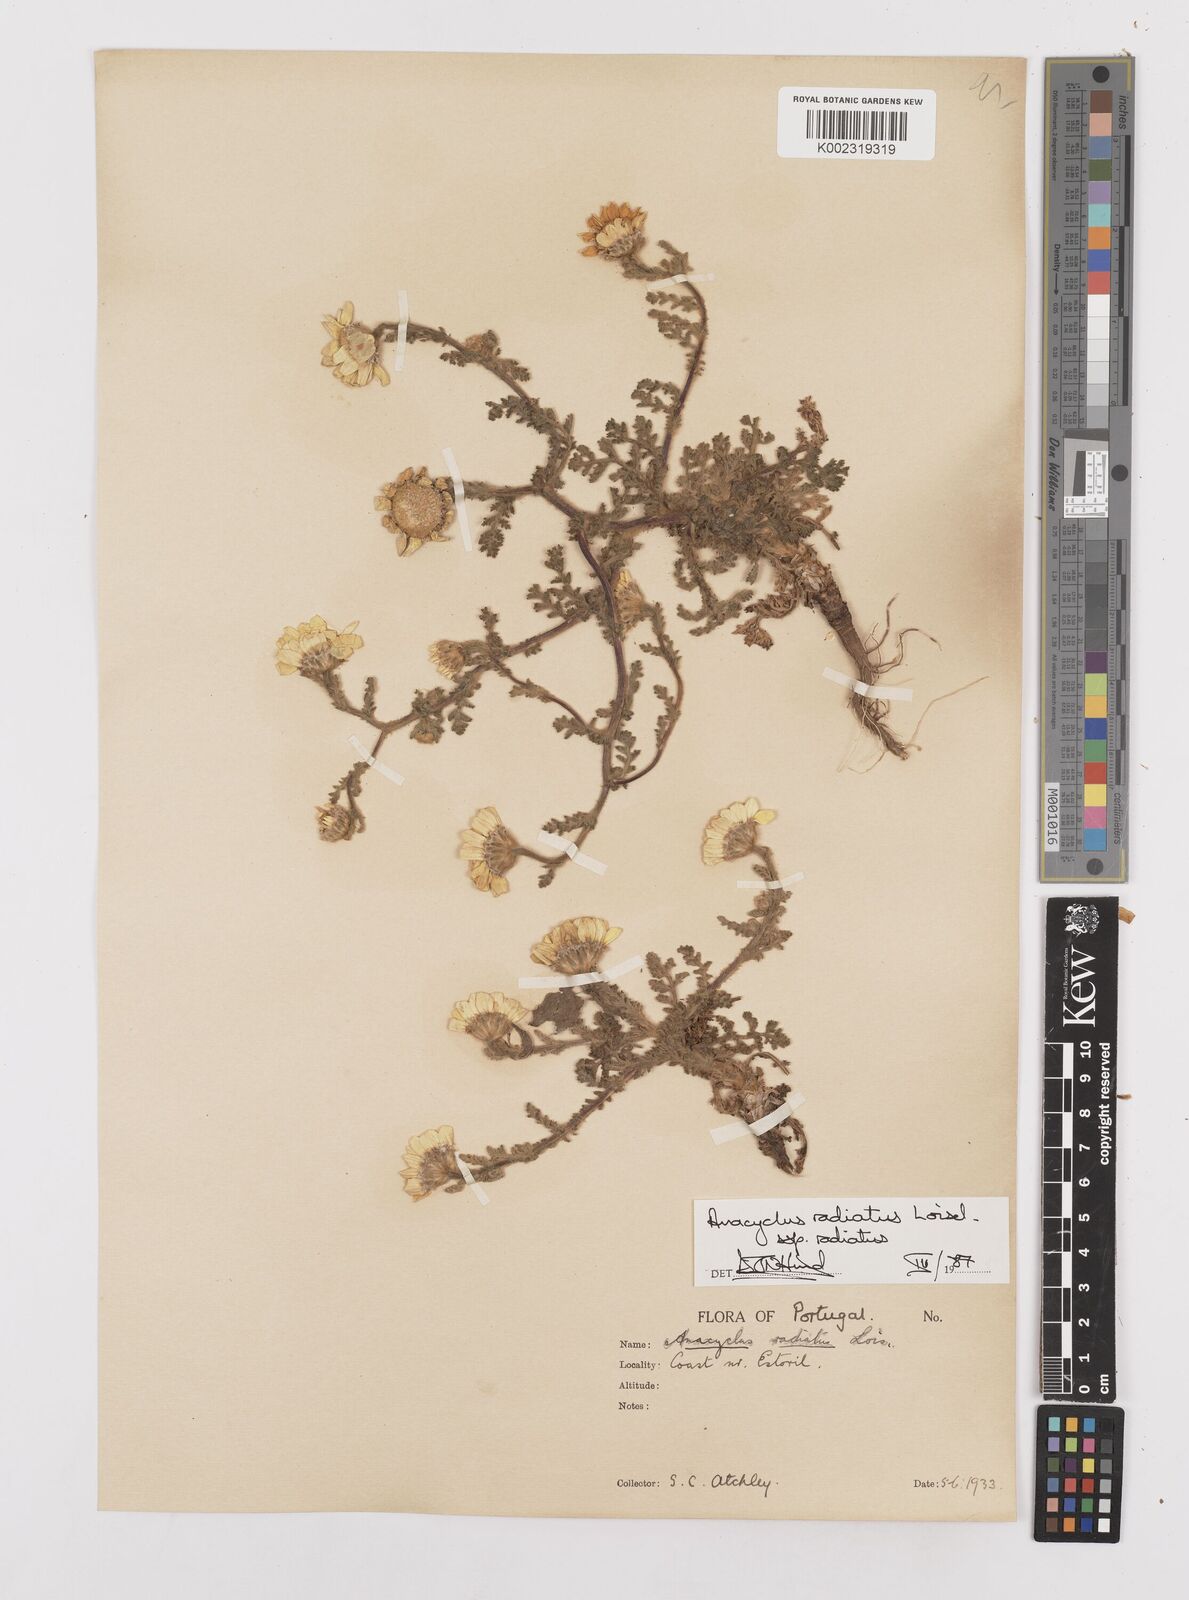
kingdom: Plantae
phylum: Tracheophyta
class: Magnoliopsida
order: Asterales
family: Asteraceae
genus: Anacyclus
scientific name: Anacyclus radiatus
